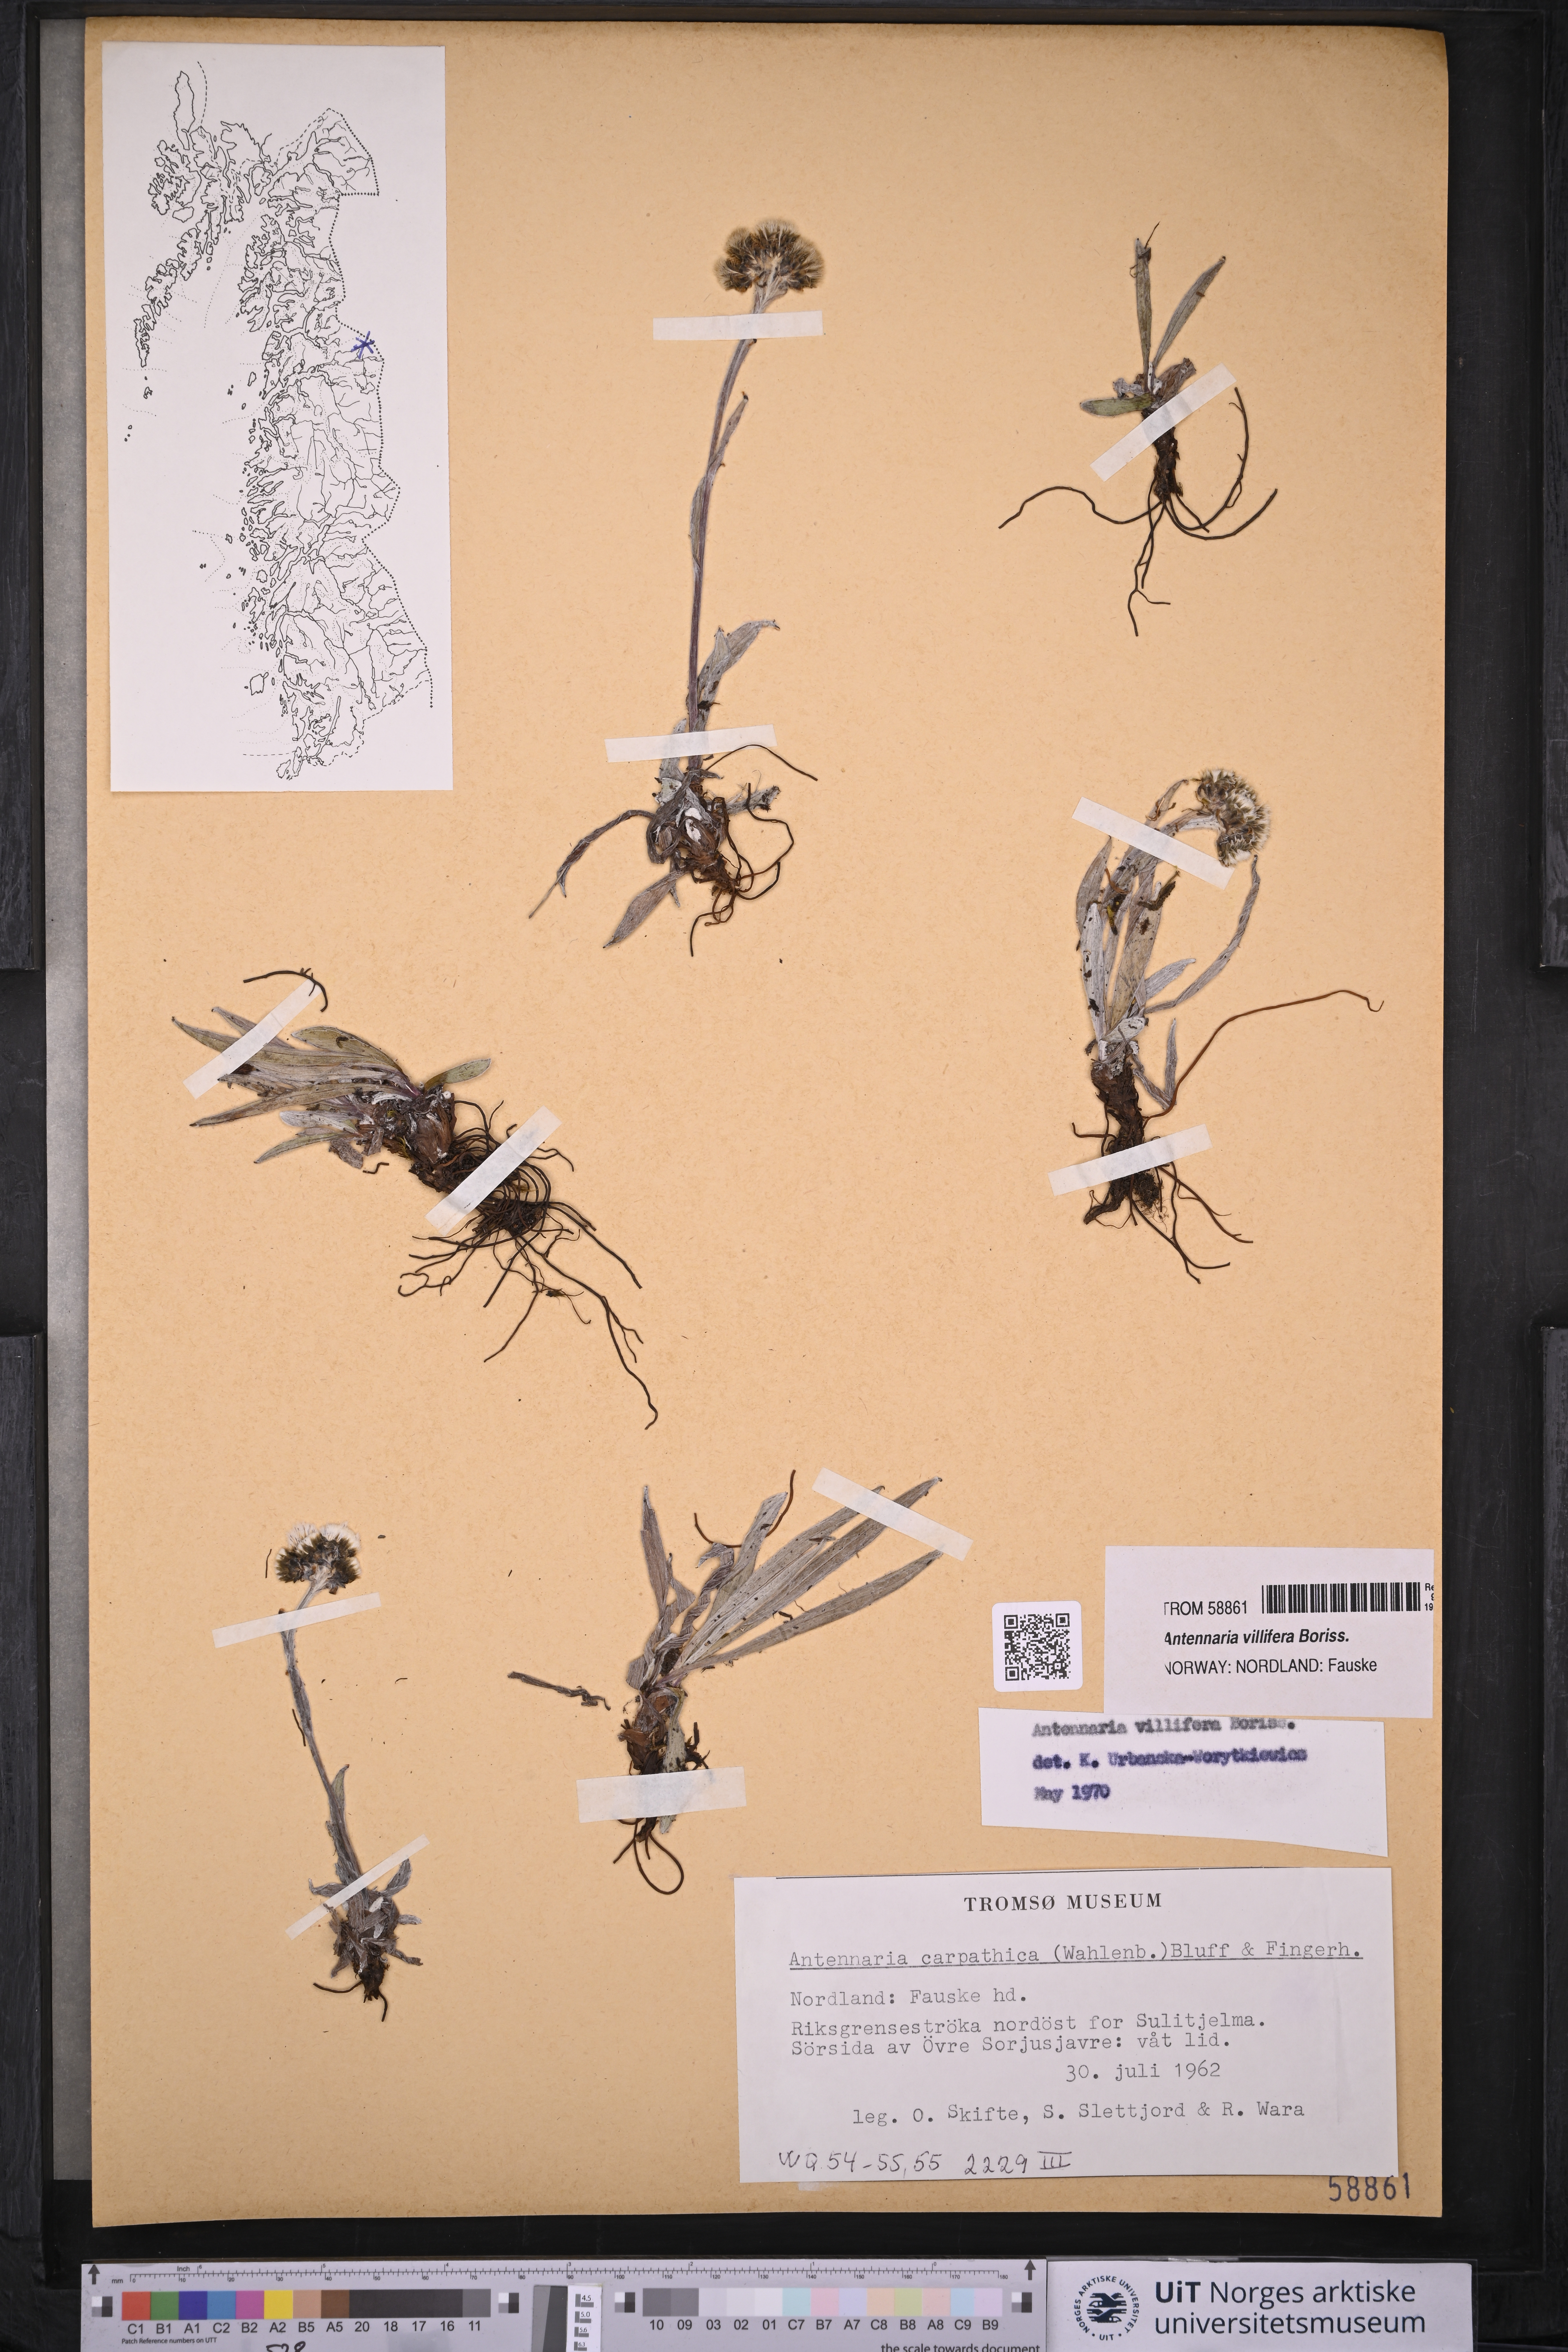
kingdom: Plantae
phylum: Tracheophyta
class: Magnoliopsida
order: Asterales
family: Asteraceae
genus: Antennaria
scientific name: Antennaria lanata
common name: Woolly pussytoes
